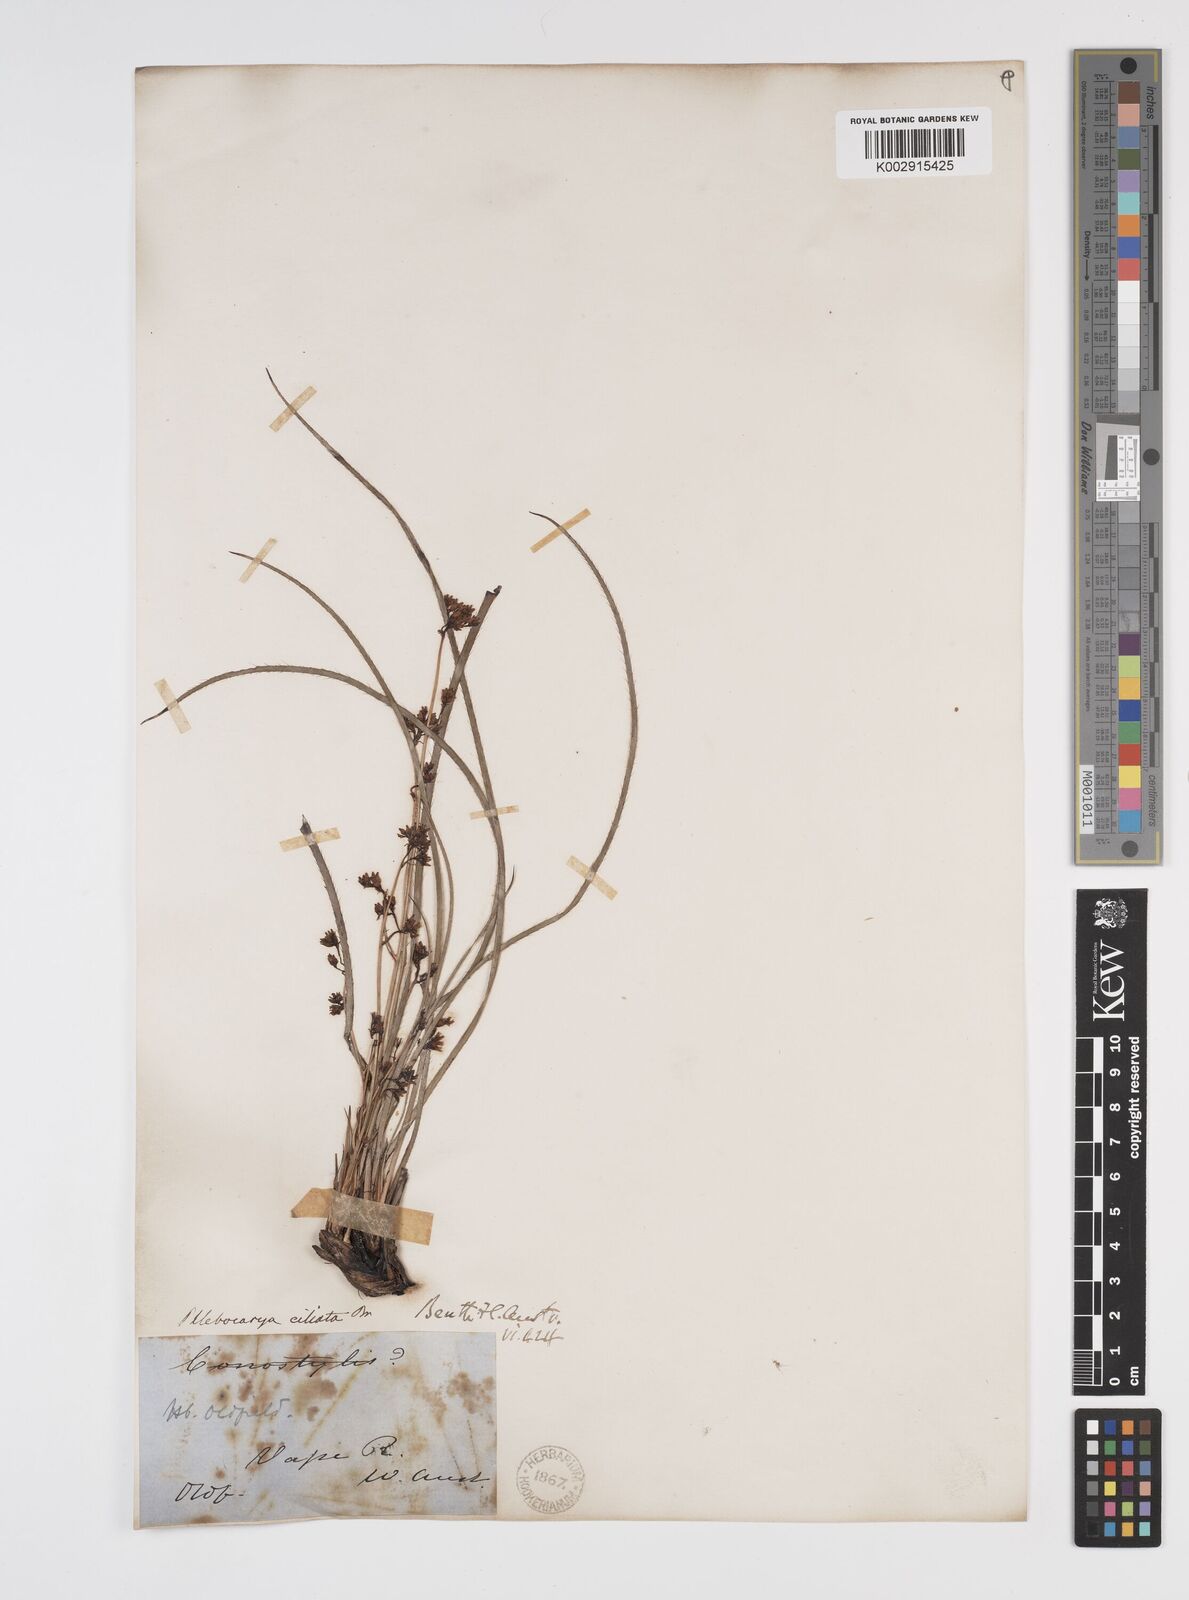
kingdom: Plantae
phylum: Tracheophyta
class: Liliopsida
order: Commelinales
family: Haemodoraceae
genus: Phlebocarya
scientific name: Phlebocarya ciliata
